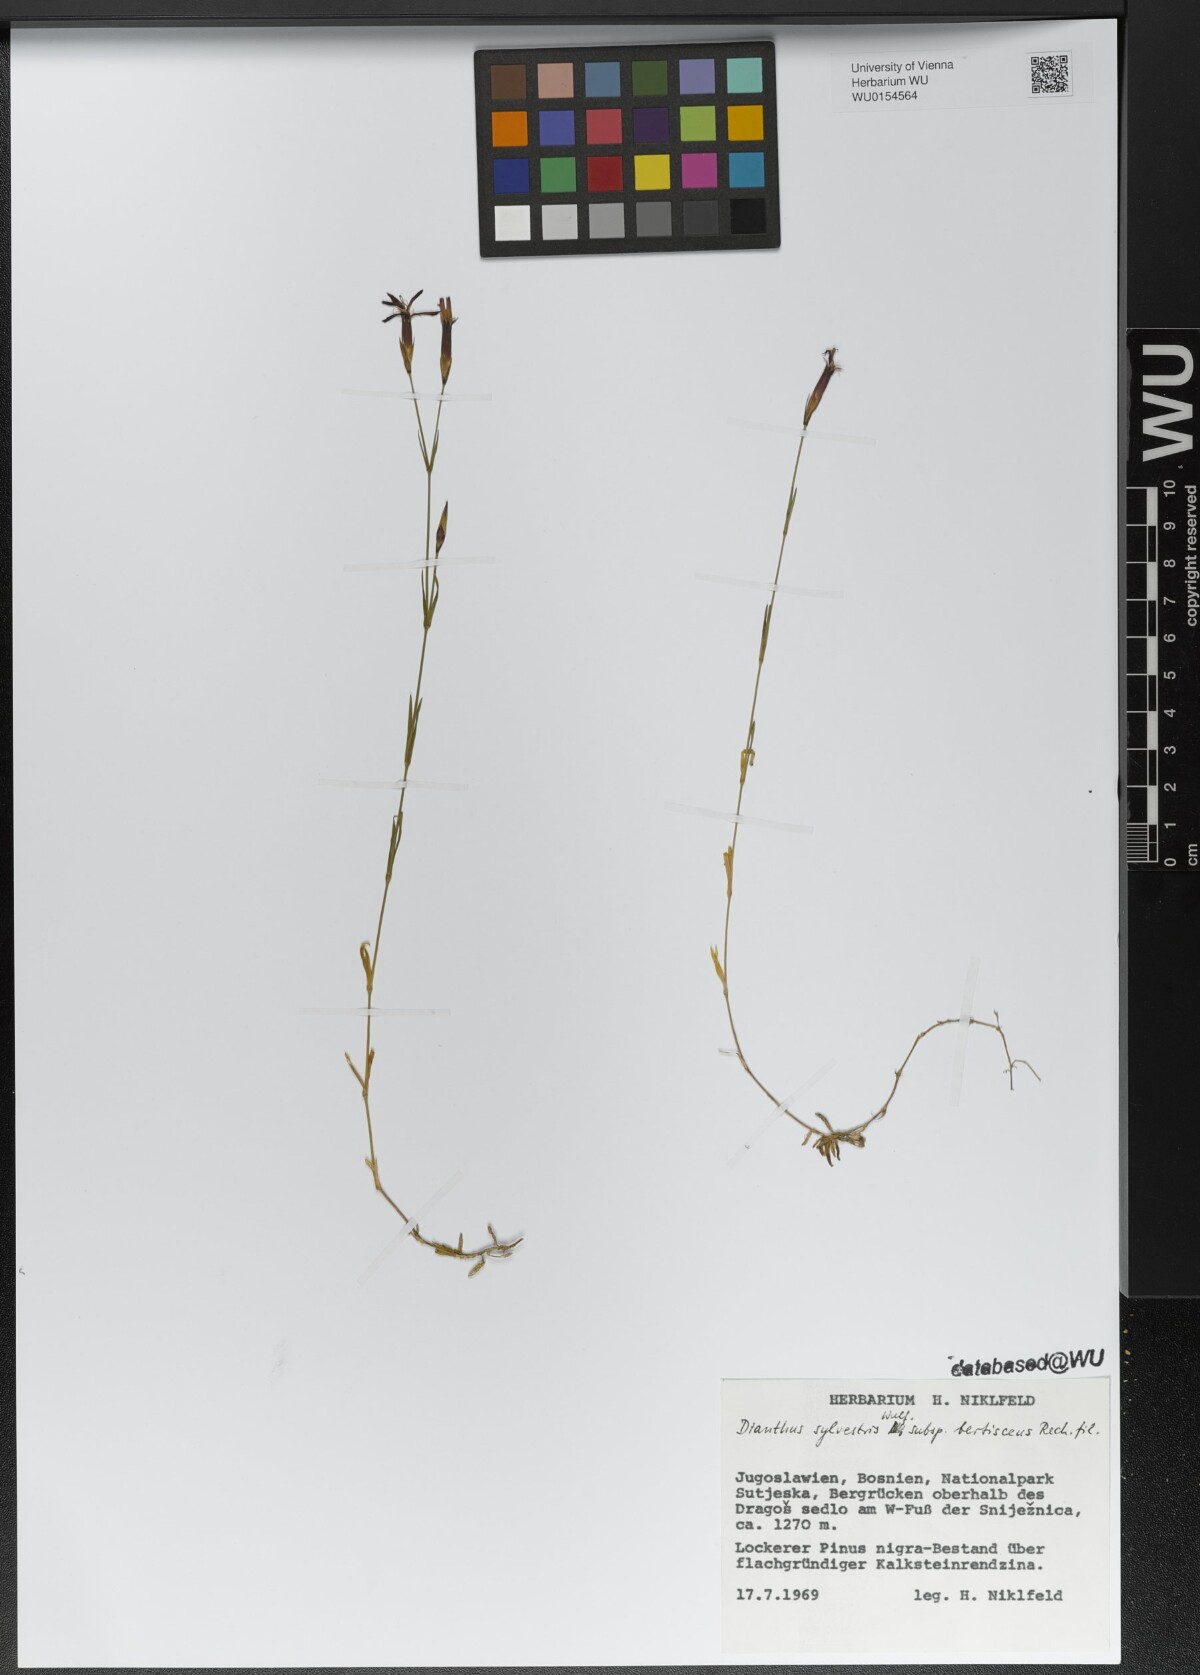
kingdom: Plantae
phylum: Tracheophyta
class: Magnoliopsida
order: Caryophyllales
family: Caryophyllaceae
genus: Dianthus
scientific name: Dianthus sylvestris
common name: Wood pink
